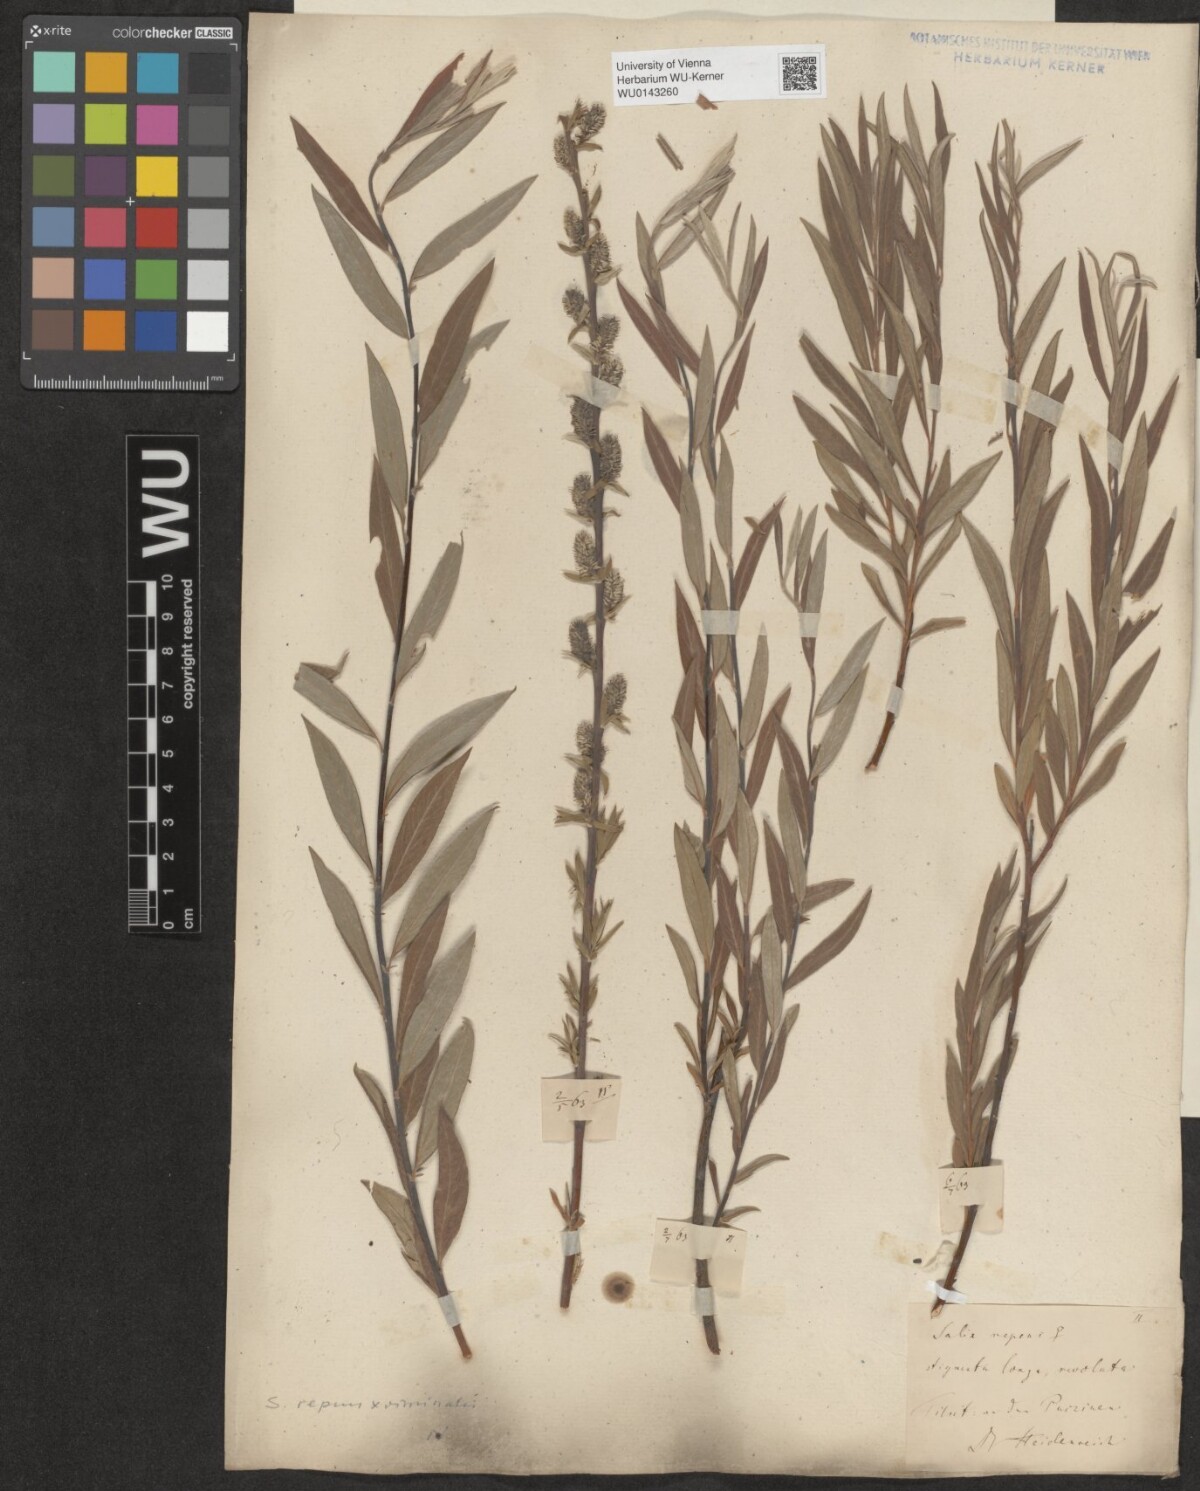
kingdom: Plantae
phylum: Tracheophyta
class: Magnoliopsida
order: Malpighiales
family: Salicaceae
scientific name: Salicaceae
